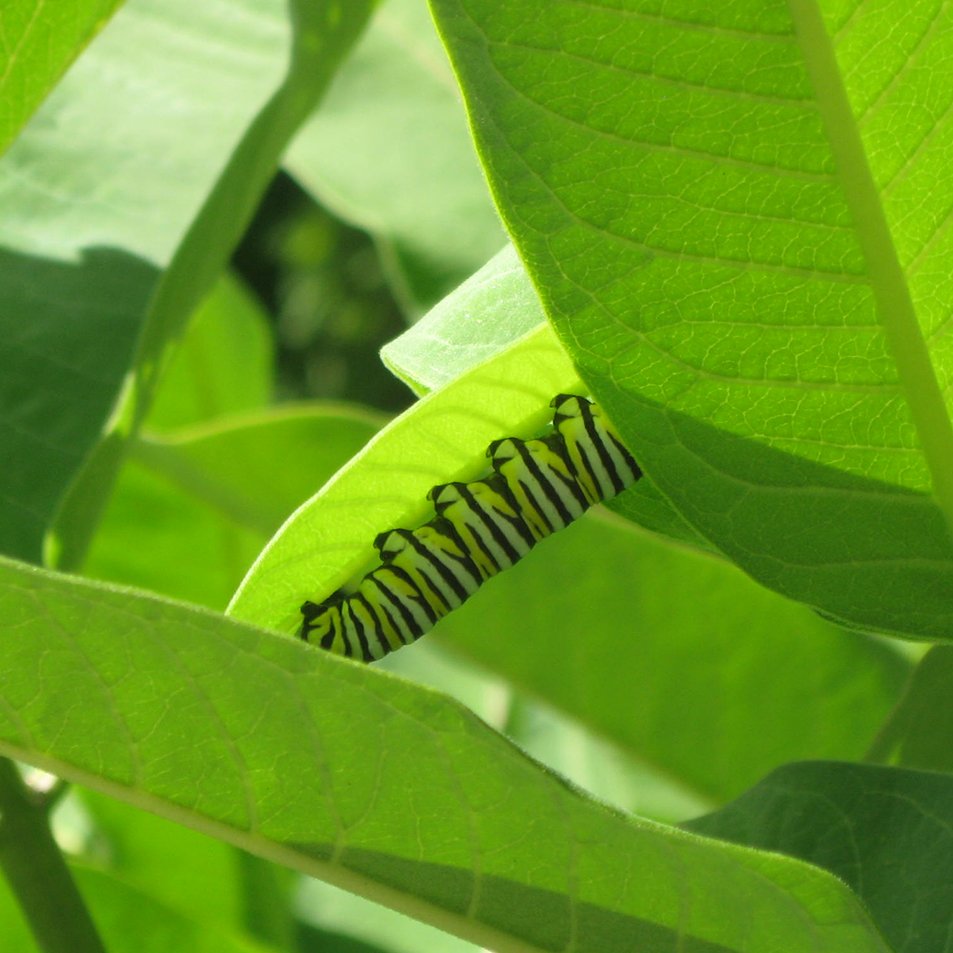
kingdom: Animalia
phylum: Arthropoda
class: Insecta
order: Lepidoptera
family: Nymphalidae
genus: Danaus
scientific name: Danaus plexippus
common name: Monarch
